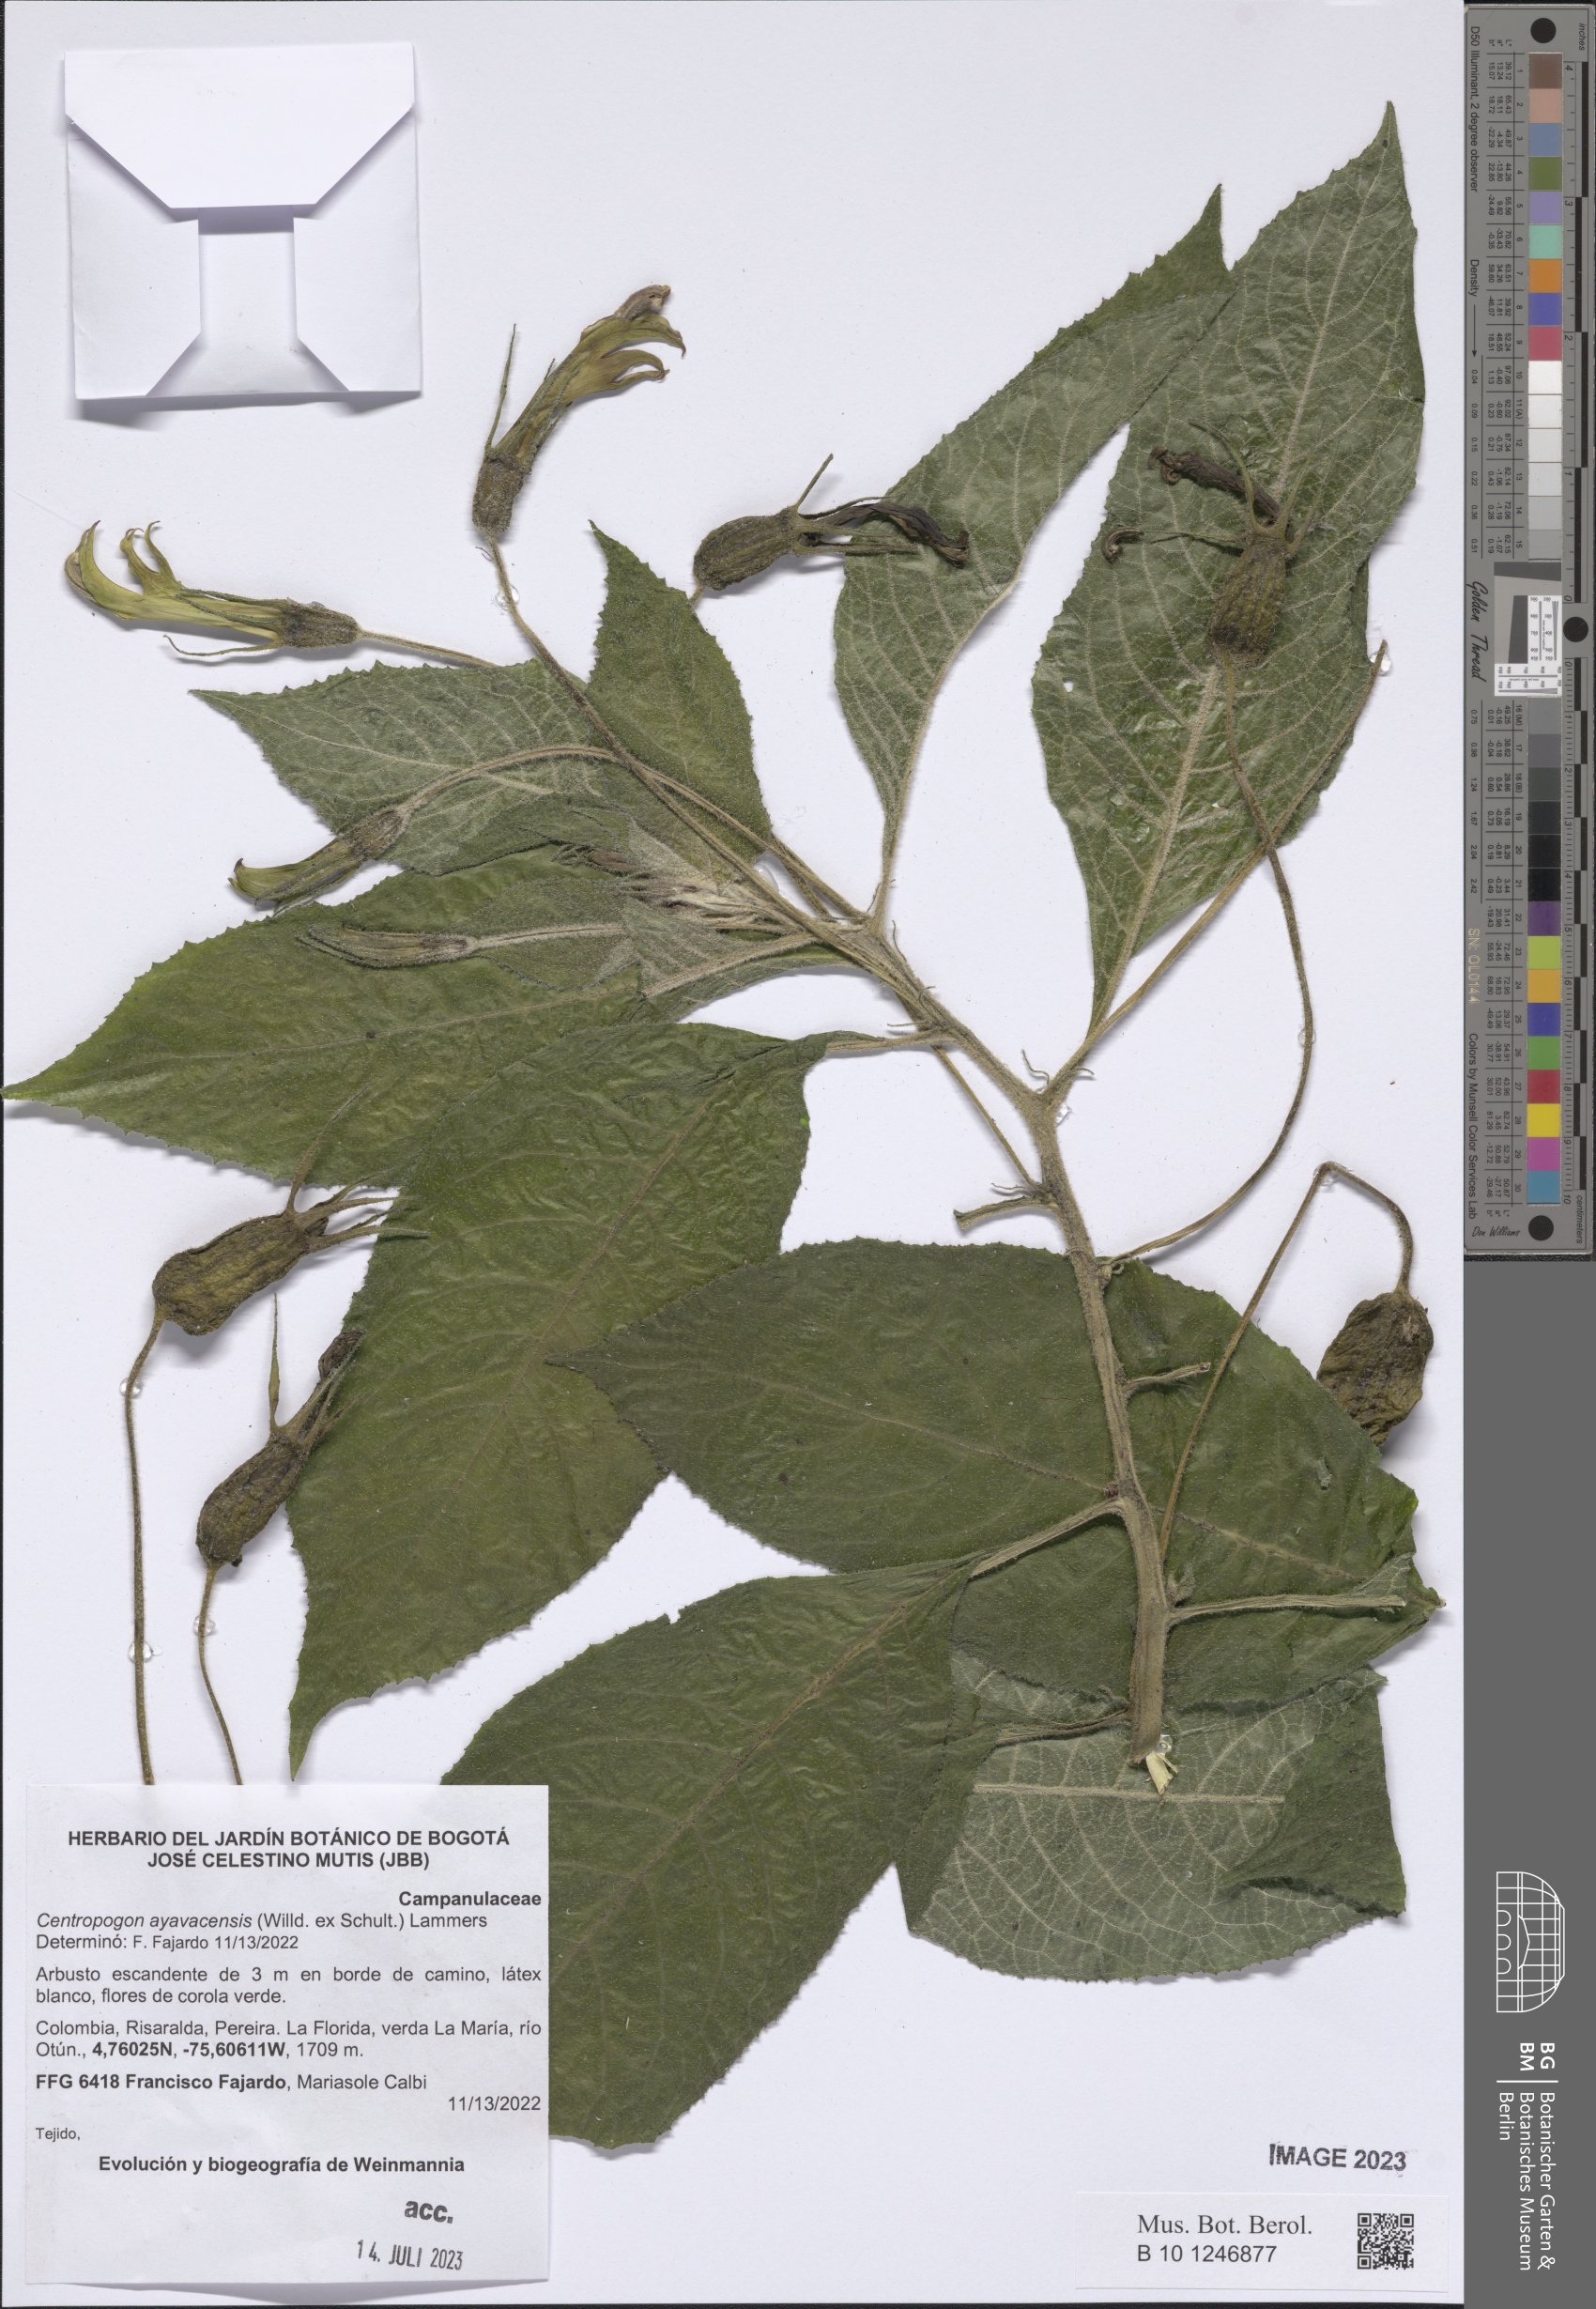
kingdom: Plantae
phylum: Tracheophyta
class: Magnoliopsida
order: Asterales
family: Campanulaceae
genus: Centropogon
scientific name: Centropogon ayavacensis
